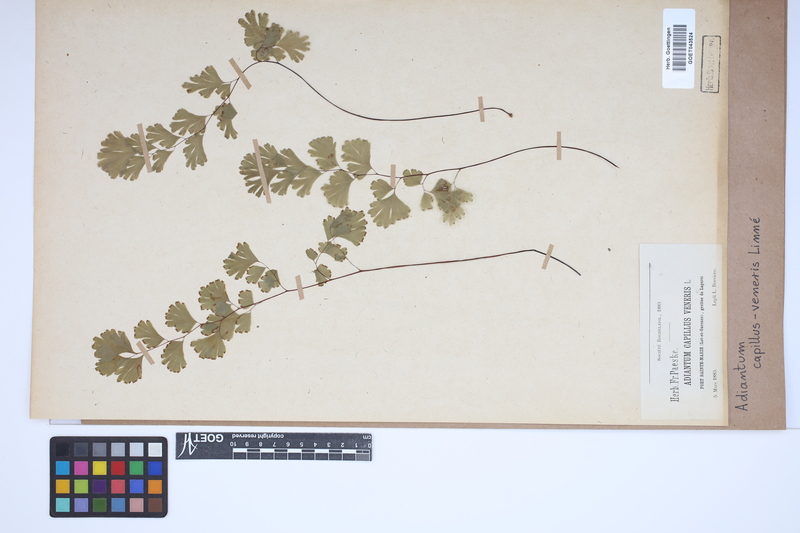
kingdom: Plantae
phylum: Tracheophyta
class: Polypodiopsida
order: Polypodiales
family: Pteridaceae
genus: Adiantum
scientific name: Adiantum capillus-veneris
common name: Maidenhair fern
